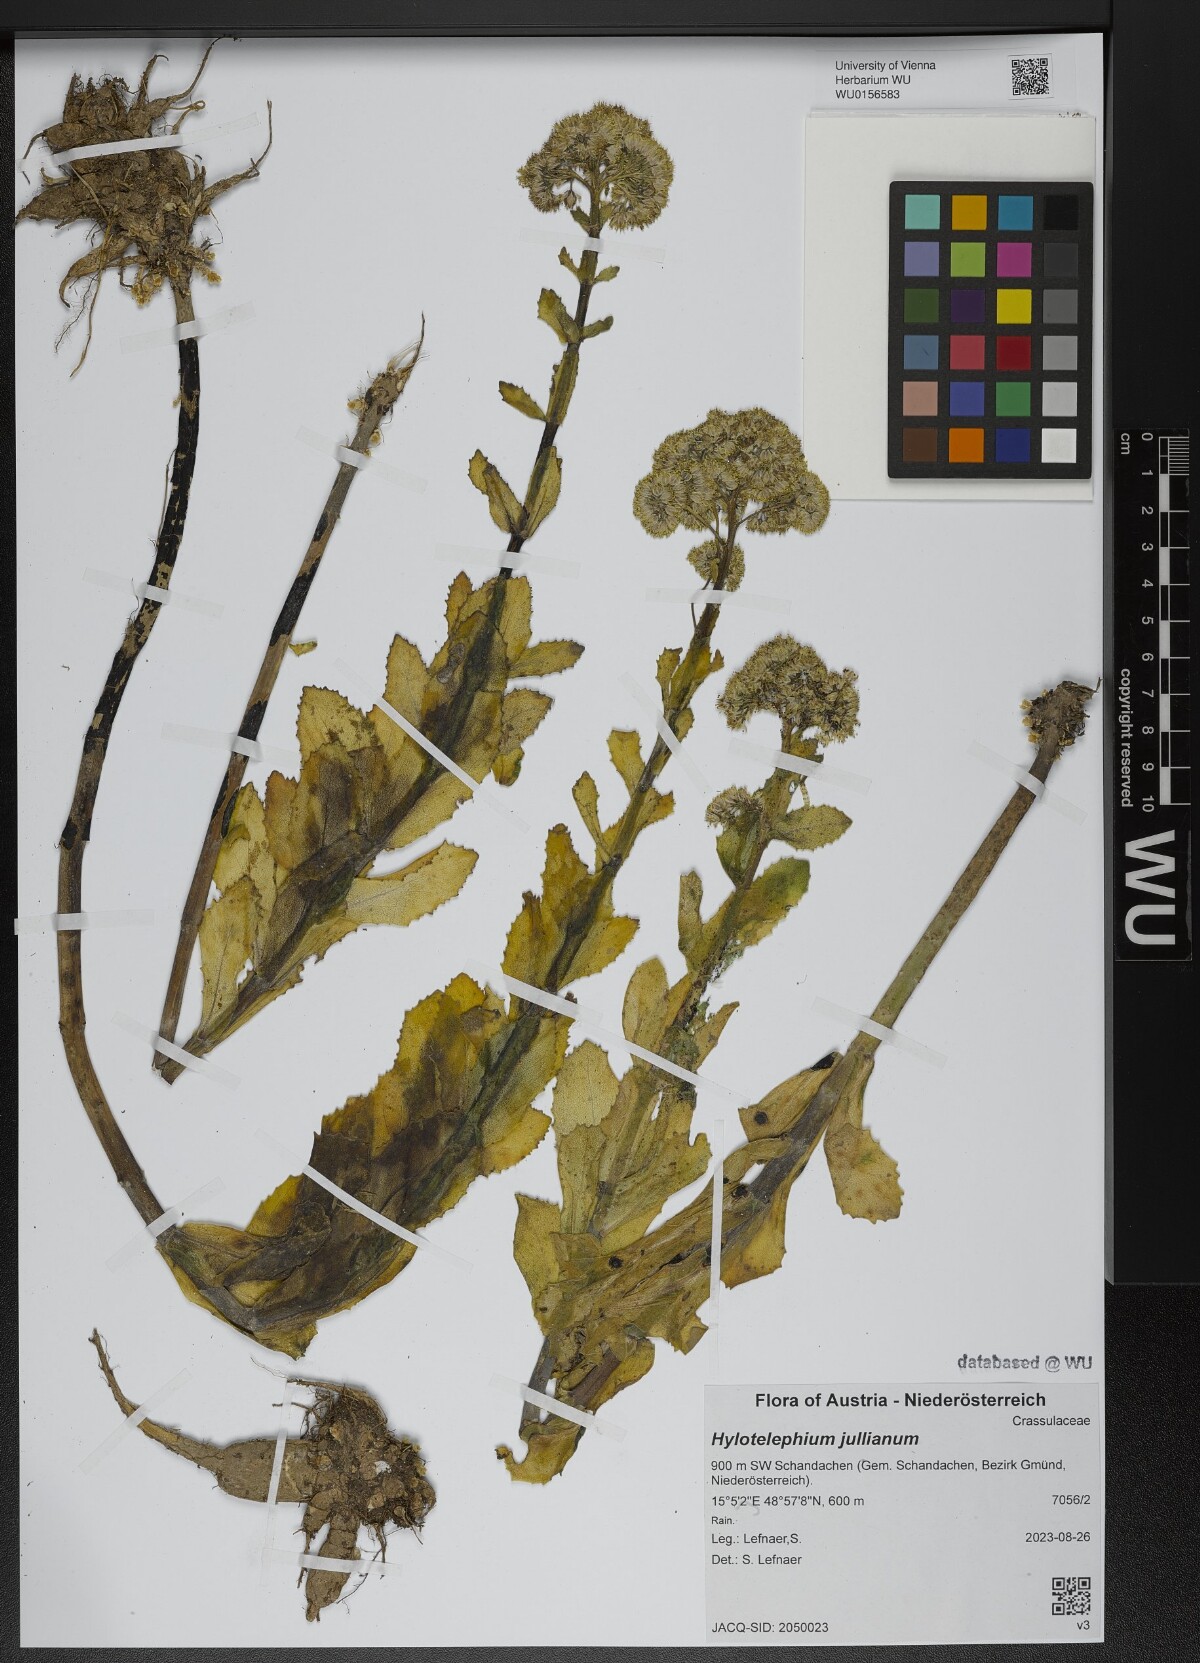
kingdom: Plantae
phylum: Tracheophyta
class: Magnoliopsida
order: Saxifragales
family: Crassulaceae
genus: Hylotelephium
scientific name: Hylotelephium jullianum
